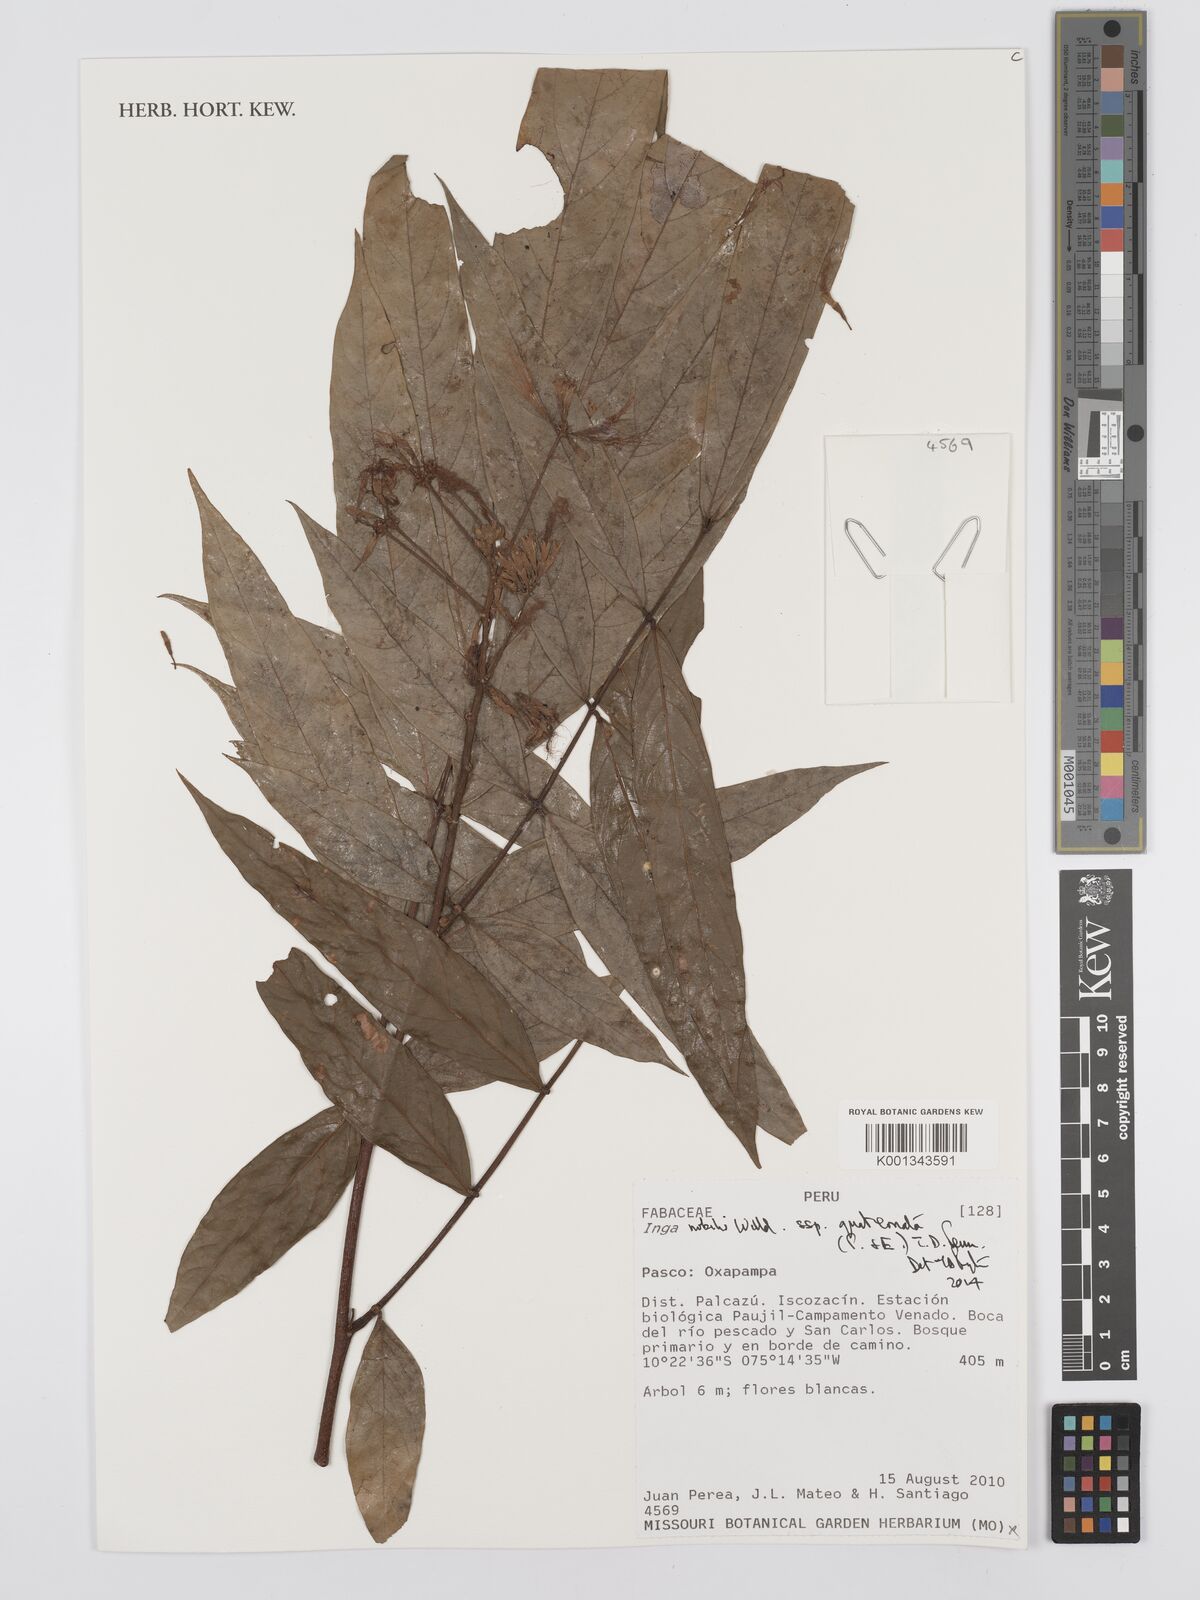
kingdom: Plantae
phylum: Tracheophyta
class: Magnoliopsida
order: Fabales
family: Fabaceae
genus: Inga
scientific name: Inga nobilis
